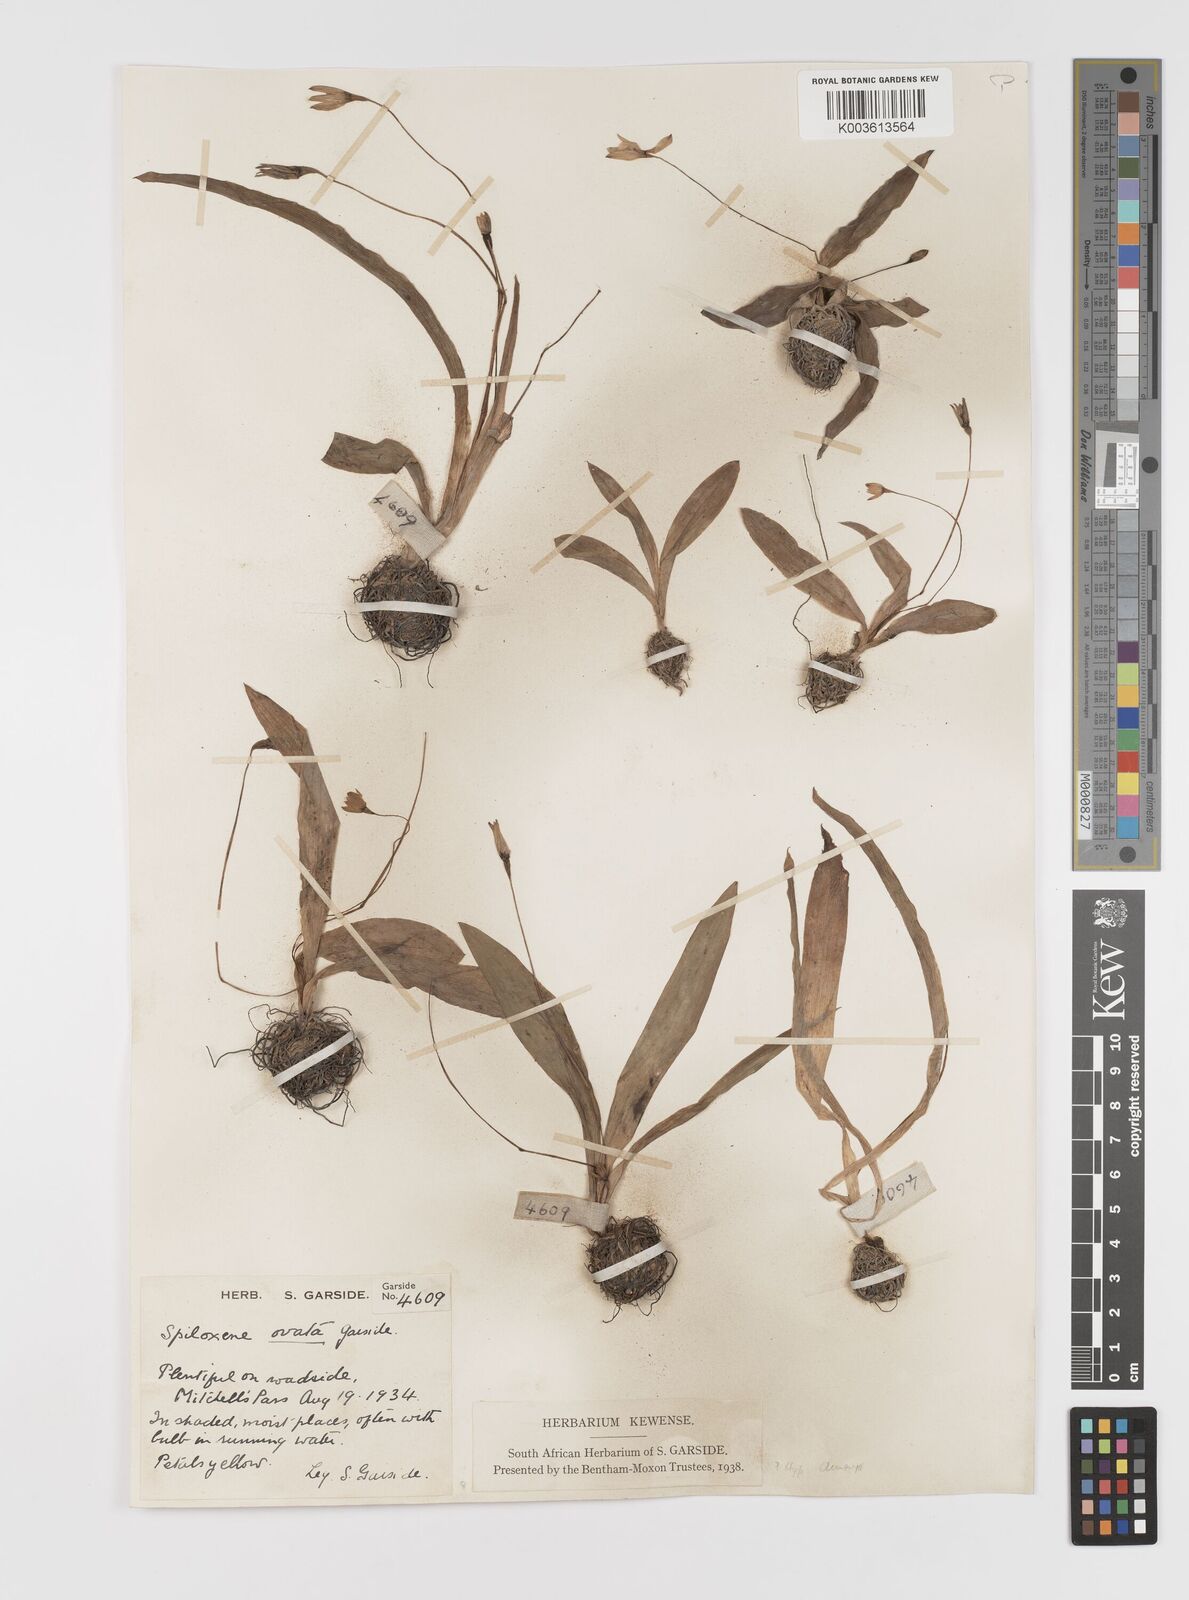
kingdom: Plantae
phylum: Tracheophyta
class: Liliopsida
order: Asparagales
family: Hypoxidaceae
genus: Pauridia
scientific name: Pauridia ovata
